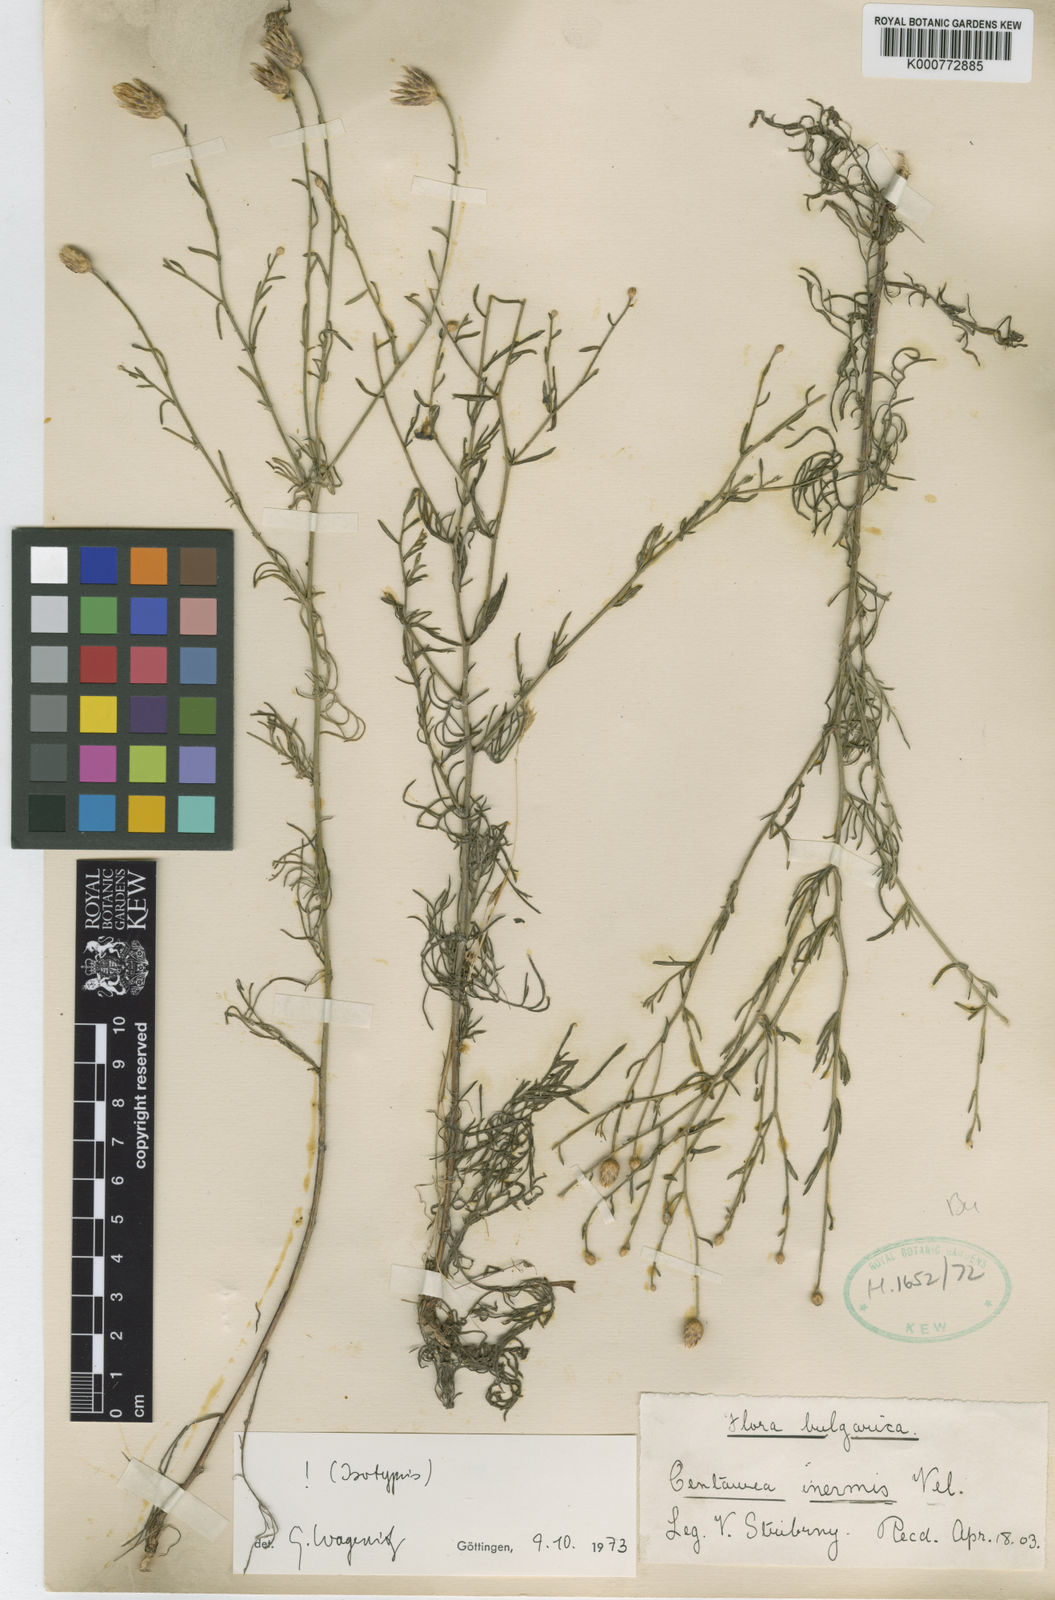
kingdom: Plantae
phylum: Tracheophyta
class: Magnoliopsida
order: Asterales
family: Asteraceae
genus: Centaurea
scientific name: Centaurea inermis
